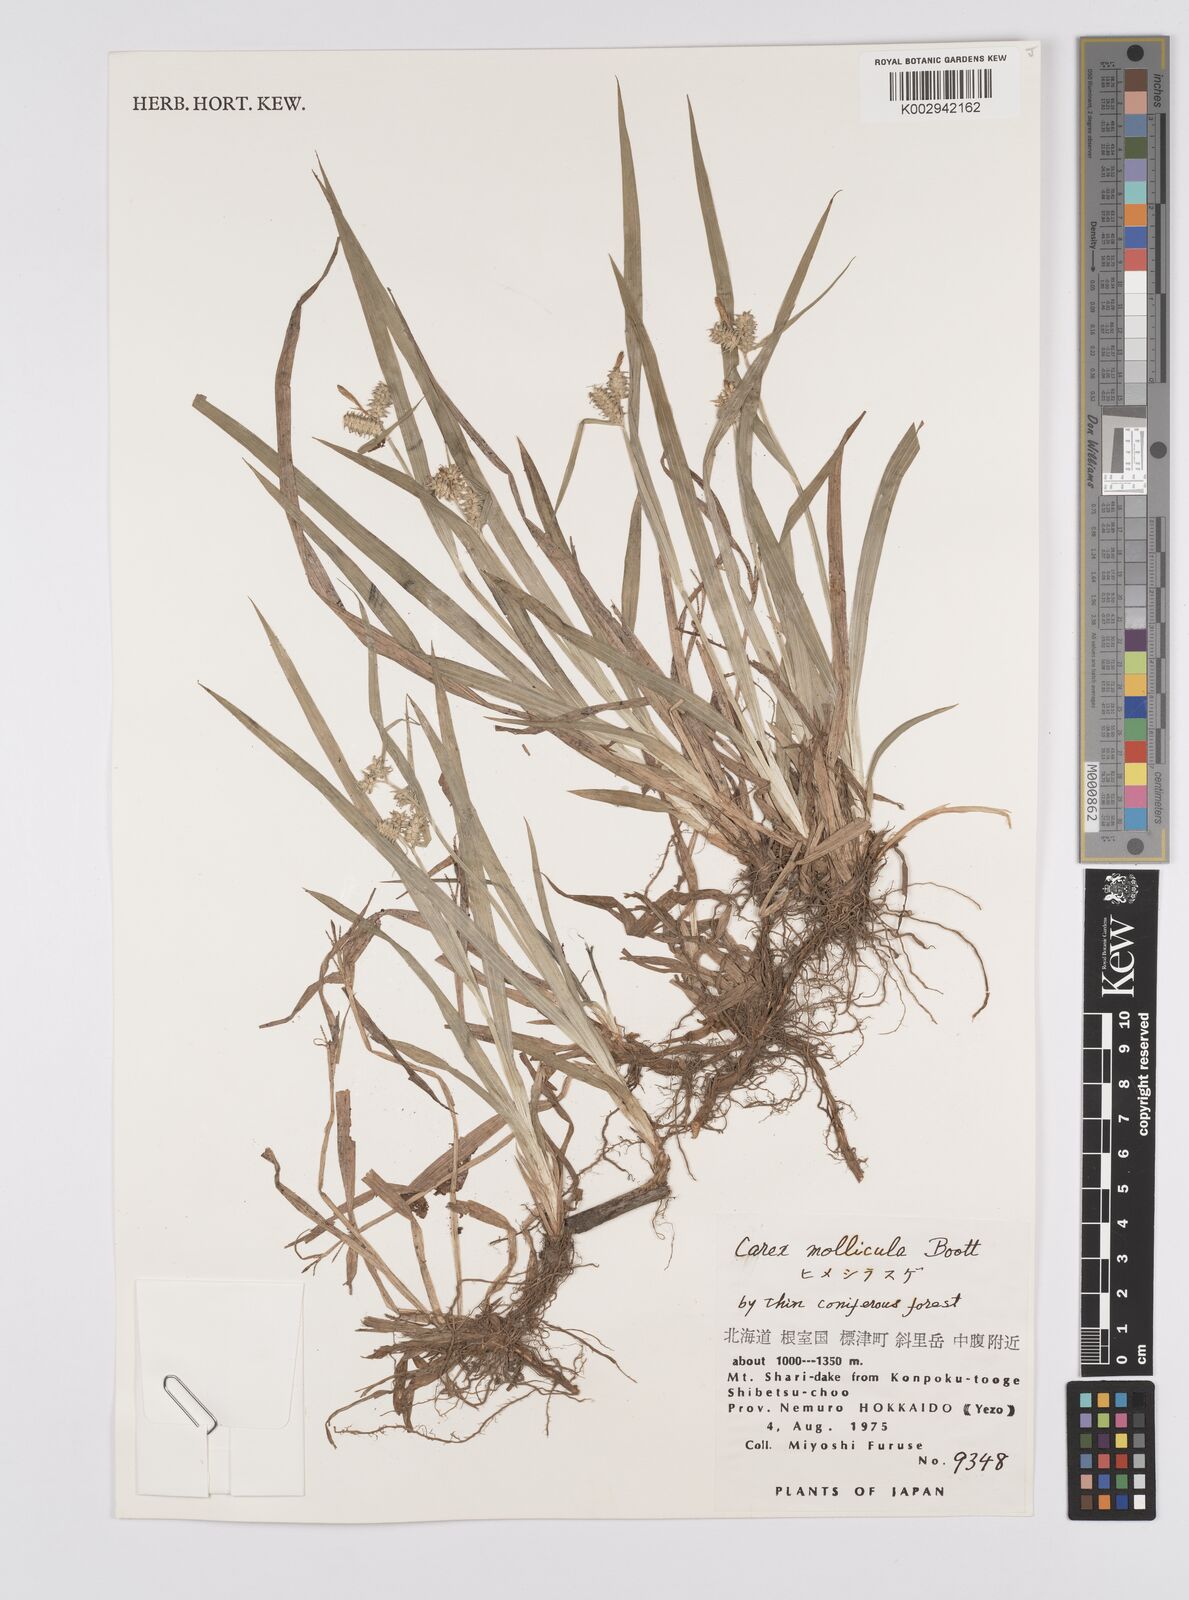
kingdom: Plantae
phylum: Tracheophyta
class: Liliopsida
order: Poales
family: Cyperaceae
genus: Carex
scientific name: Carex mollicula
